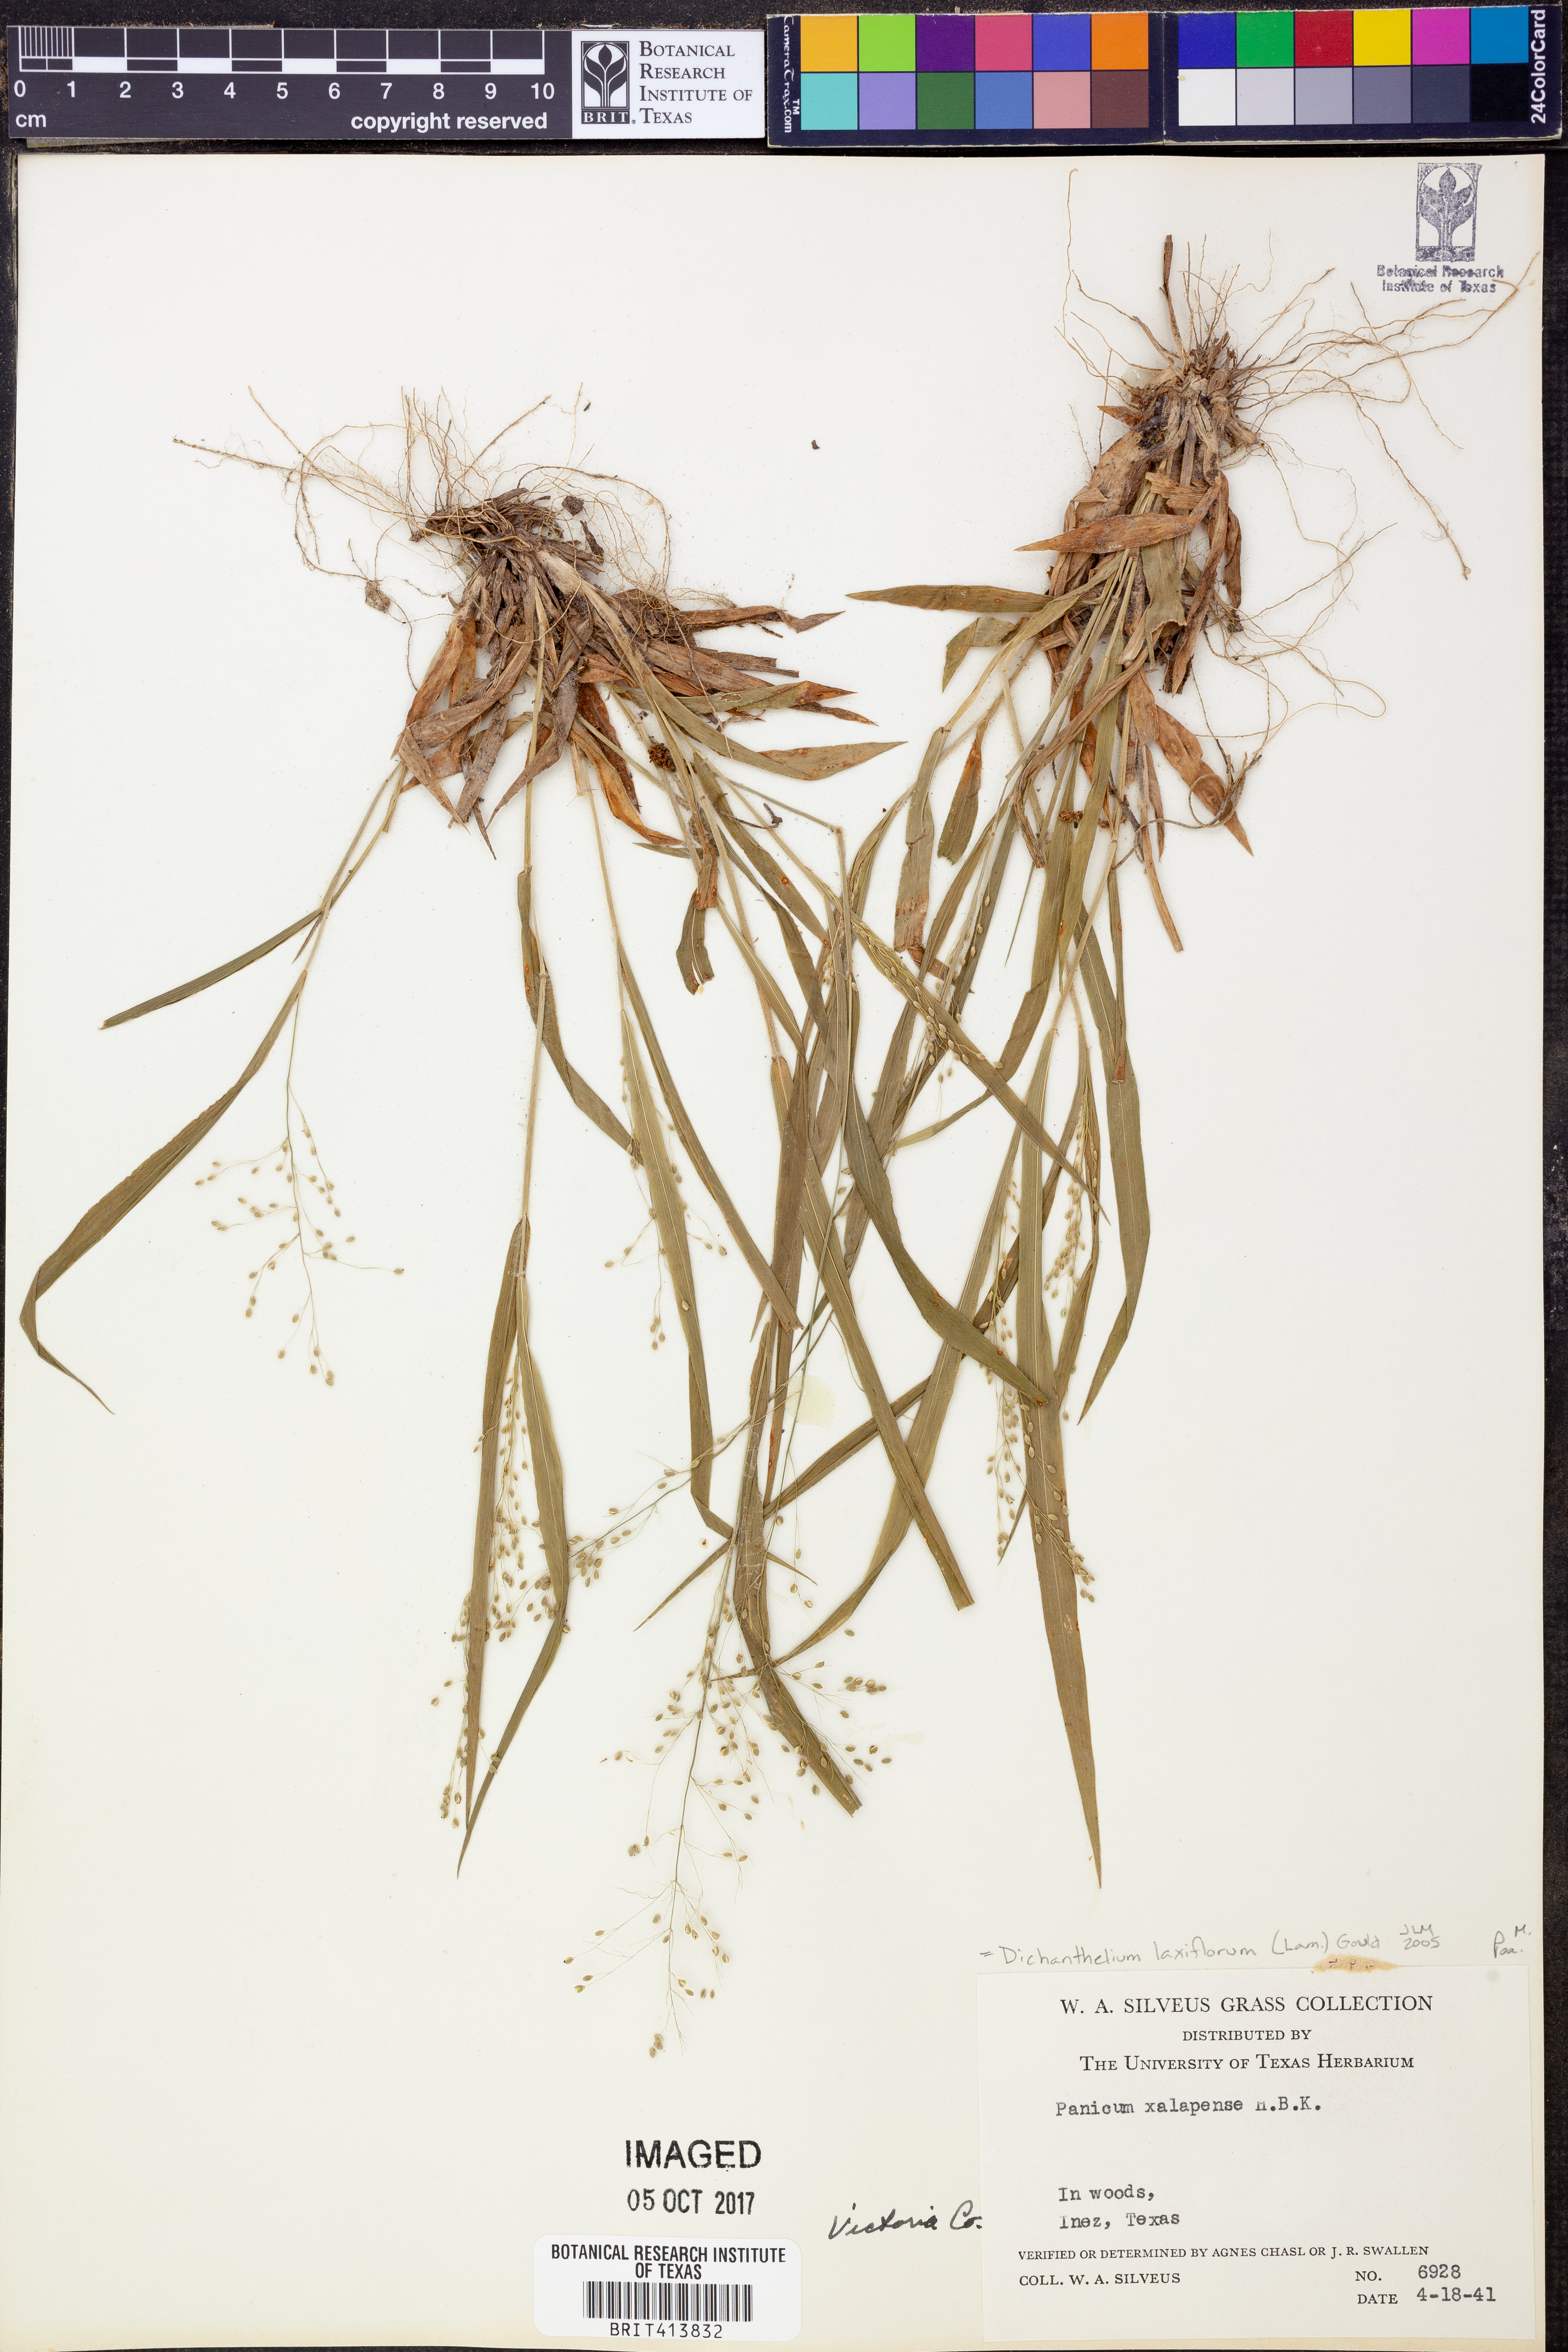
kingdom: Plantae
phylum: Tracheophyta
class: Liliopsida
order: Poales
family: Poaceae
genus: Dichanthelium
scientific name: Dichanthelium laxiflorum
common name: Soft-tuft panic grass
